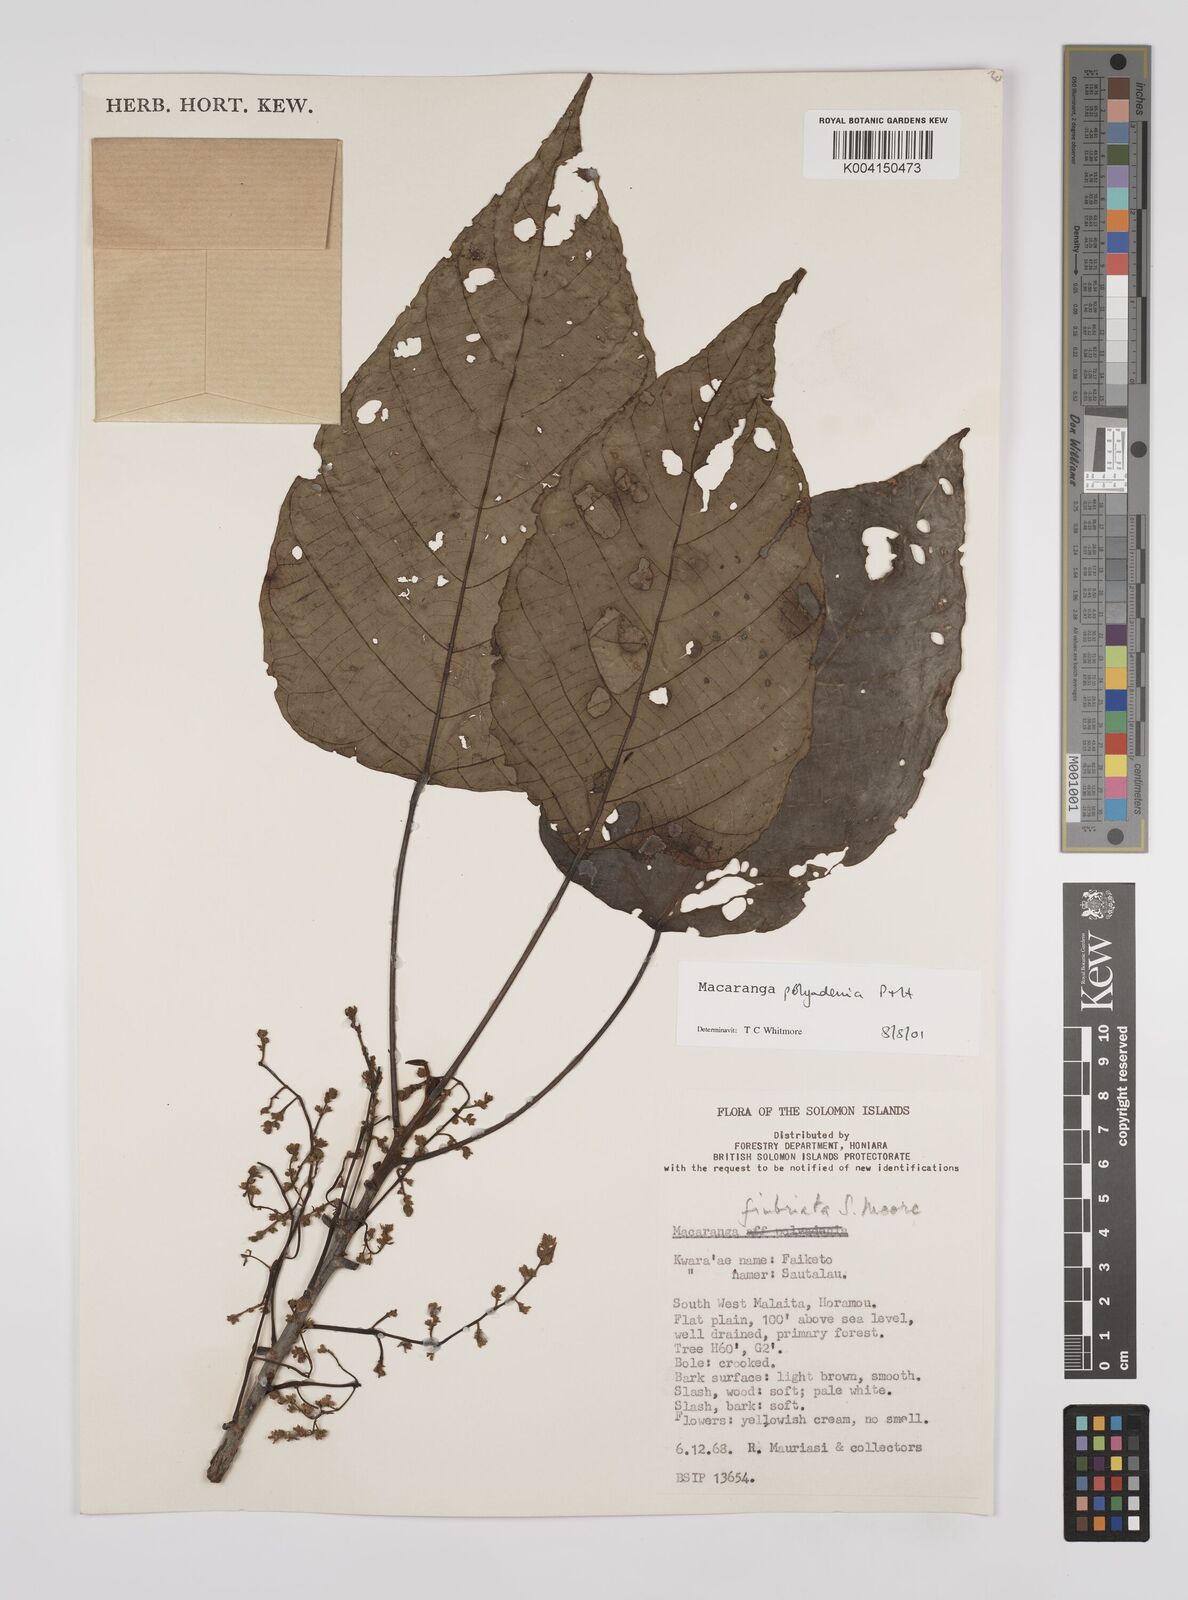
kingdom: Plantae
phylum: Tracheophyta
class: Magnoliopsida
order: Malpighiales
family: Euphorbiaceae
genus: Macaranga
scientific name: Macaranga polyadenia
